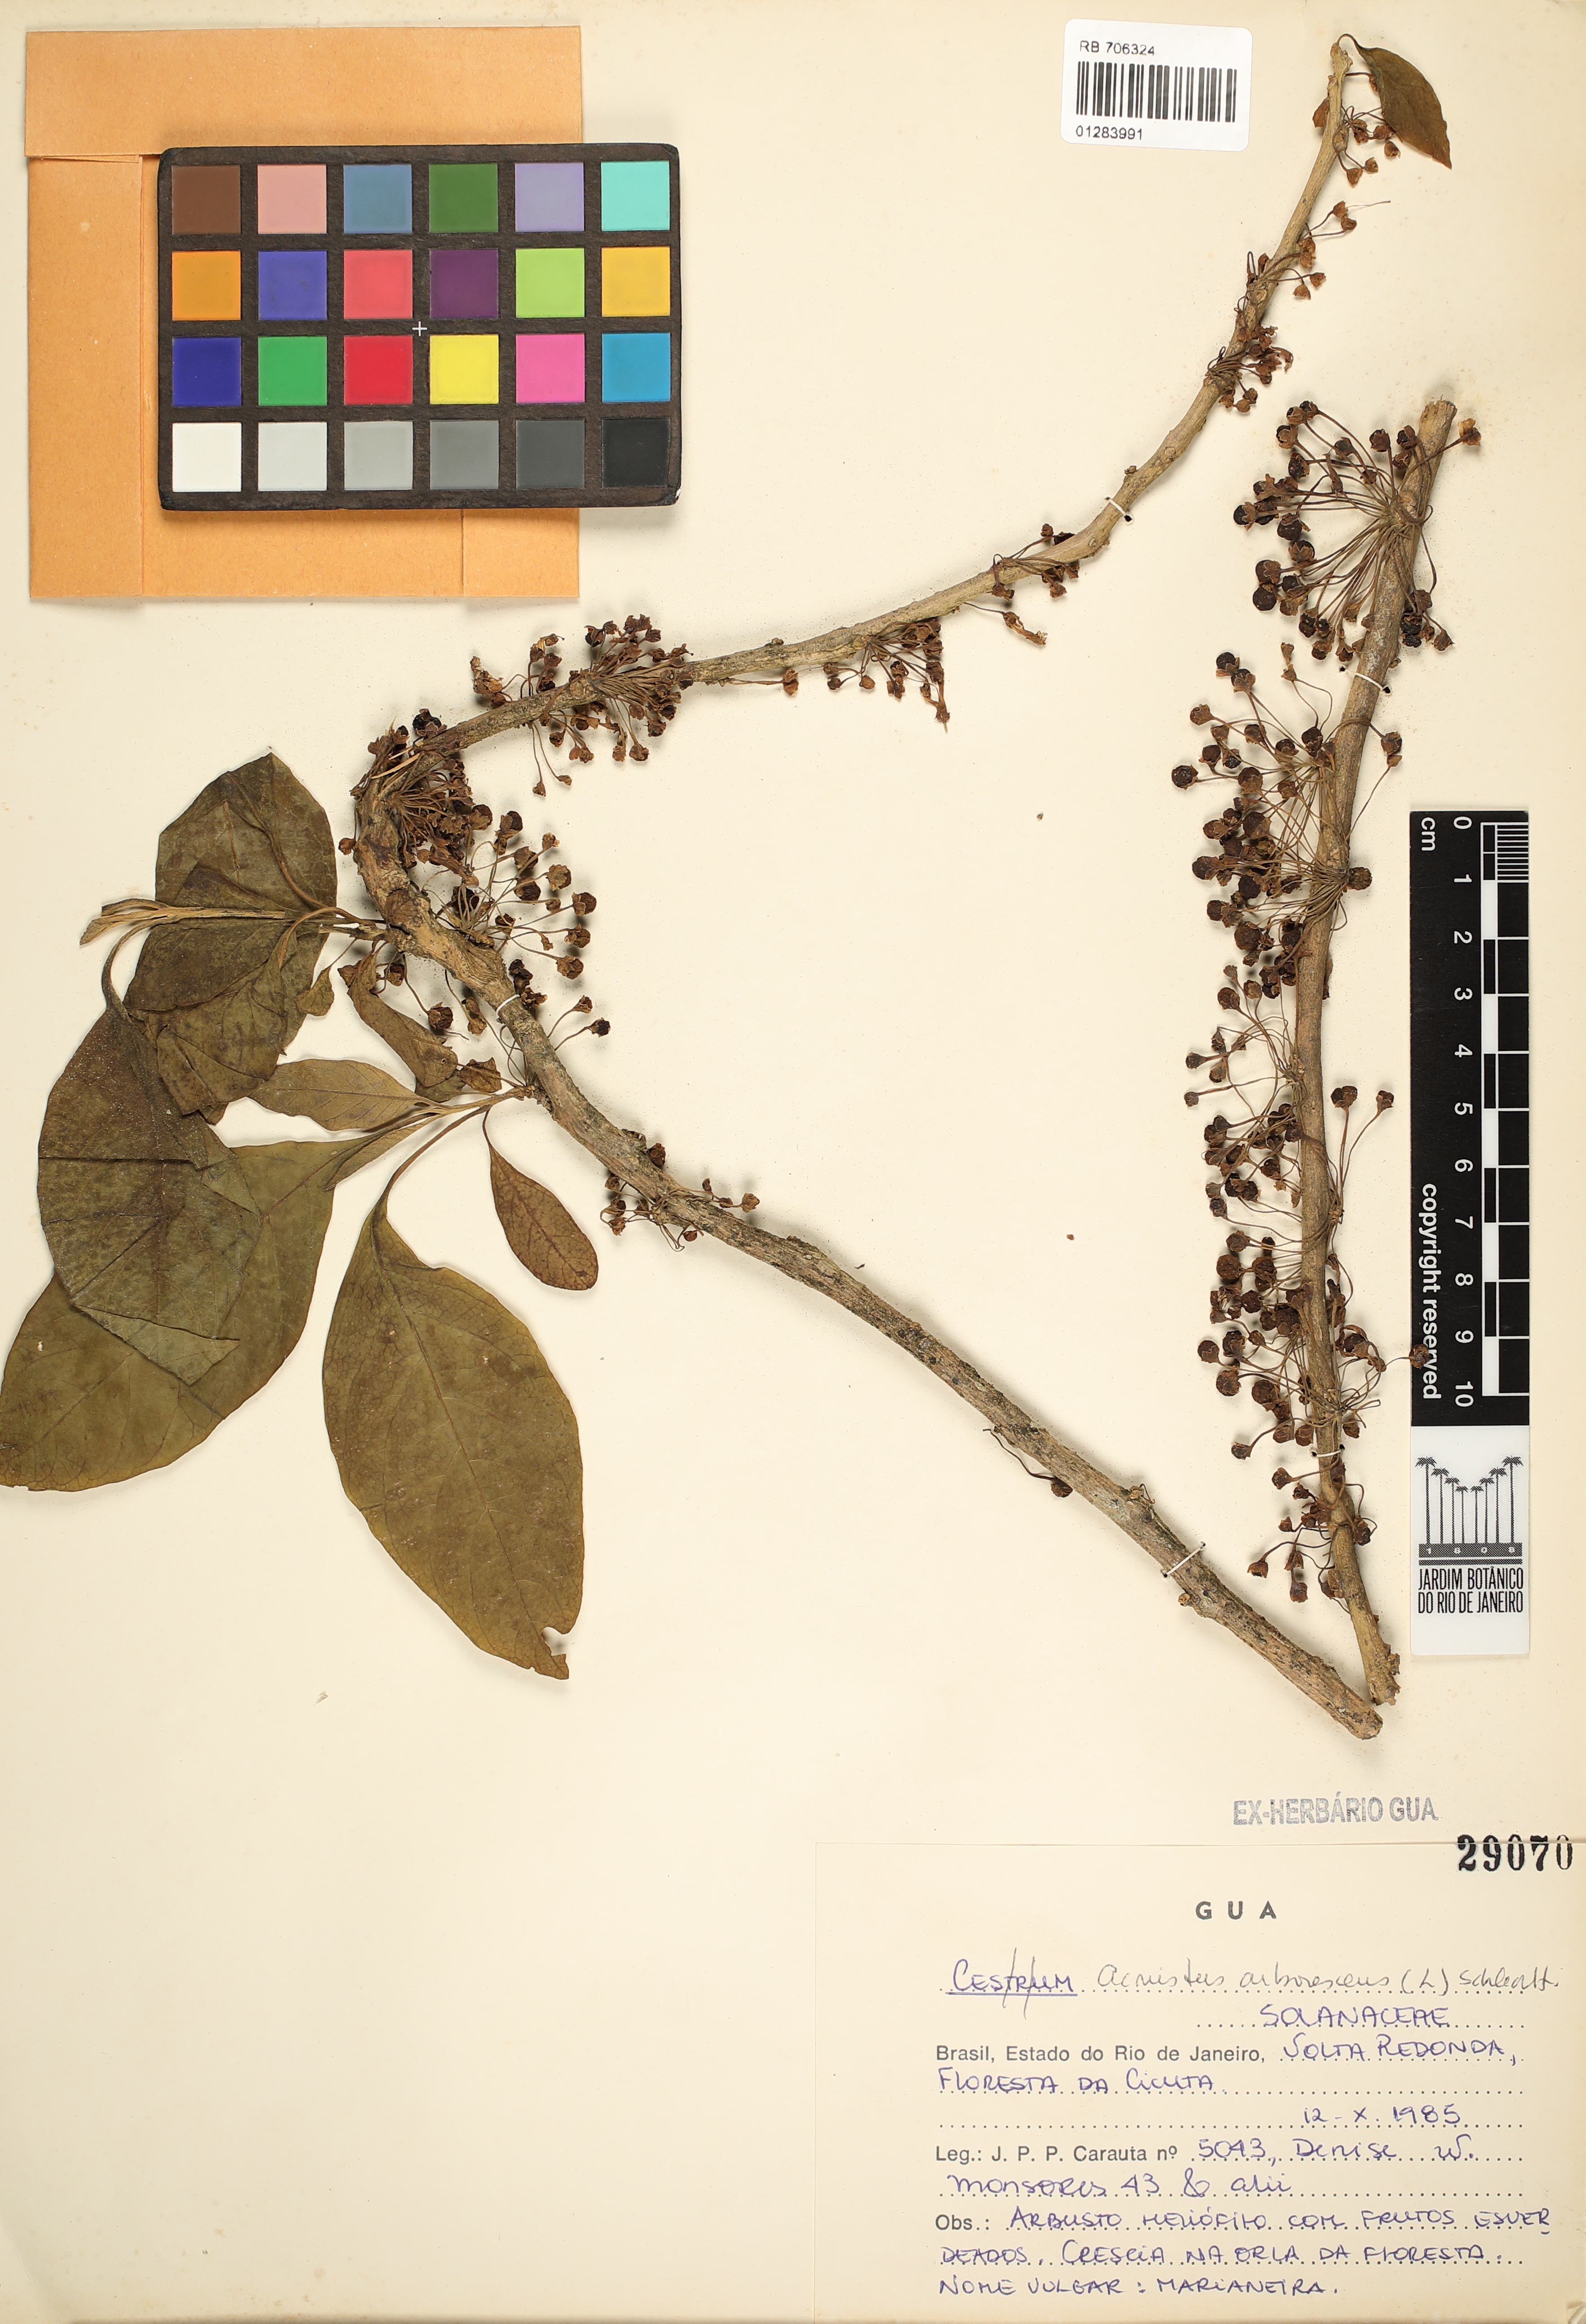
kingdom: Plantae
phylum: Tracheophyta
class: Magnoliopsida
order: Solanales
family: Solanaceae
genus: Iochroma
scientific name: Iochroma arborescens
